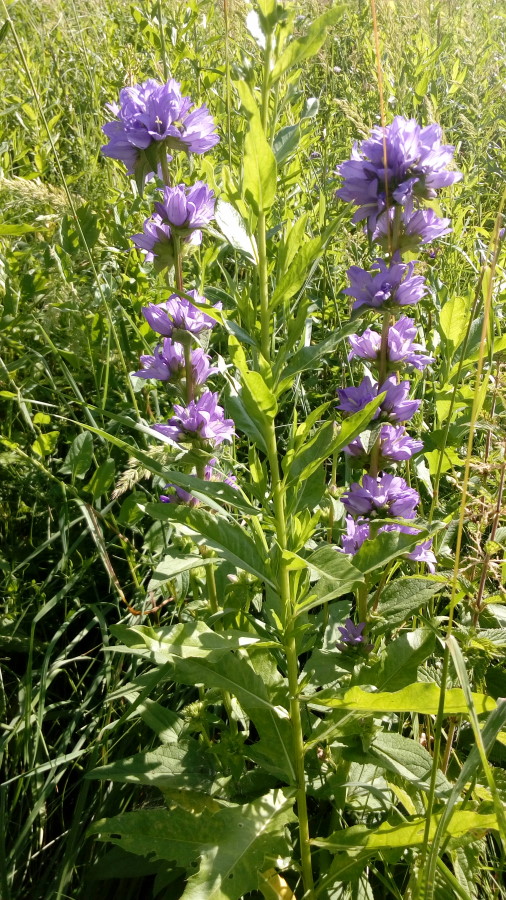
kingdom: Plantae
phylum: Tracheophyta
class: Magnoliopsida
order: Asterales
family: Campanulaceae
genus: Campanula
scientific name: Campanula glomerata
